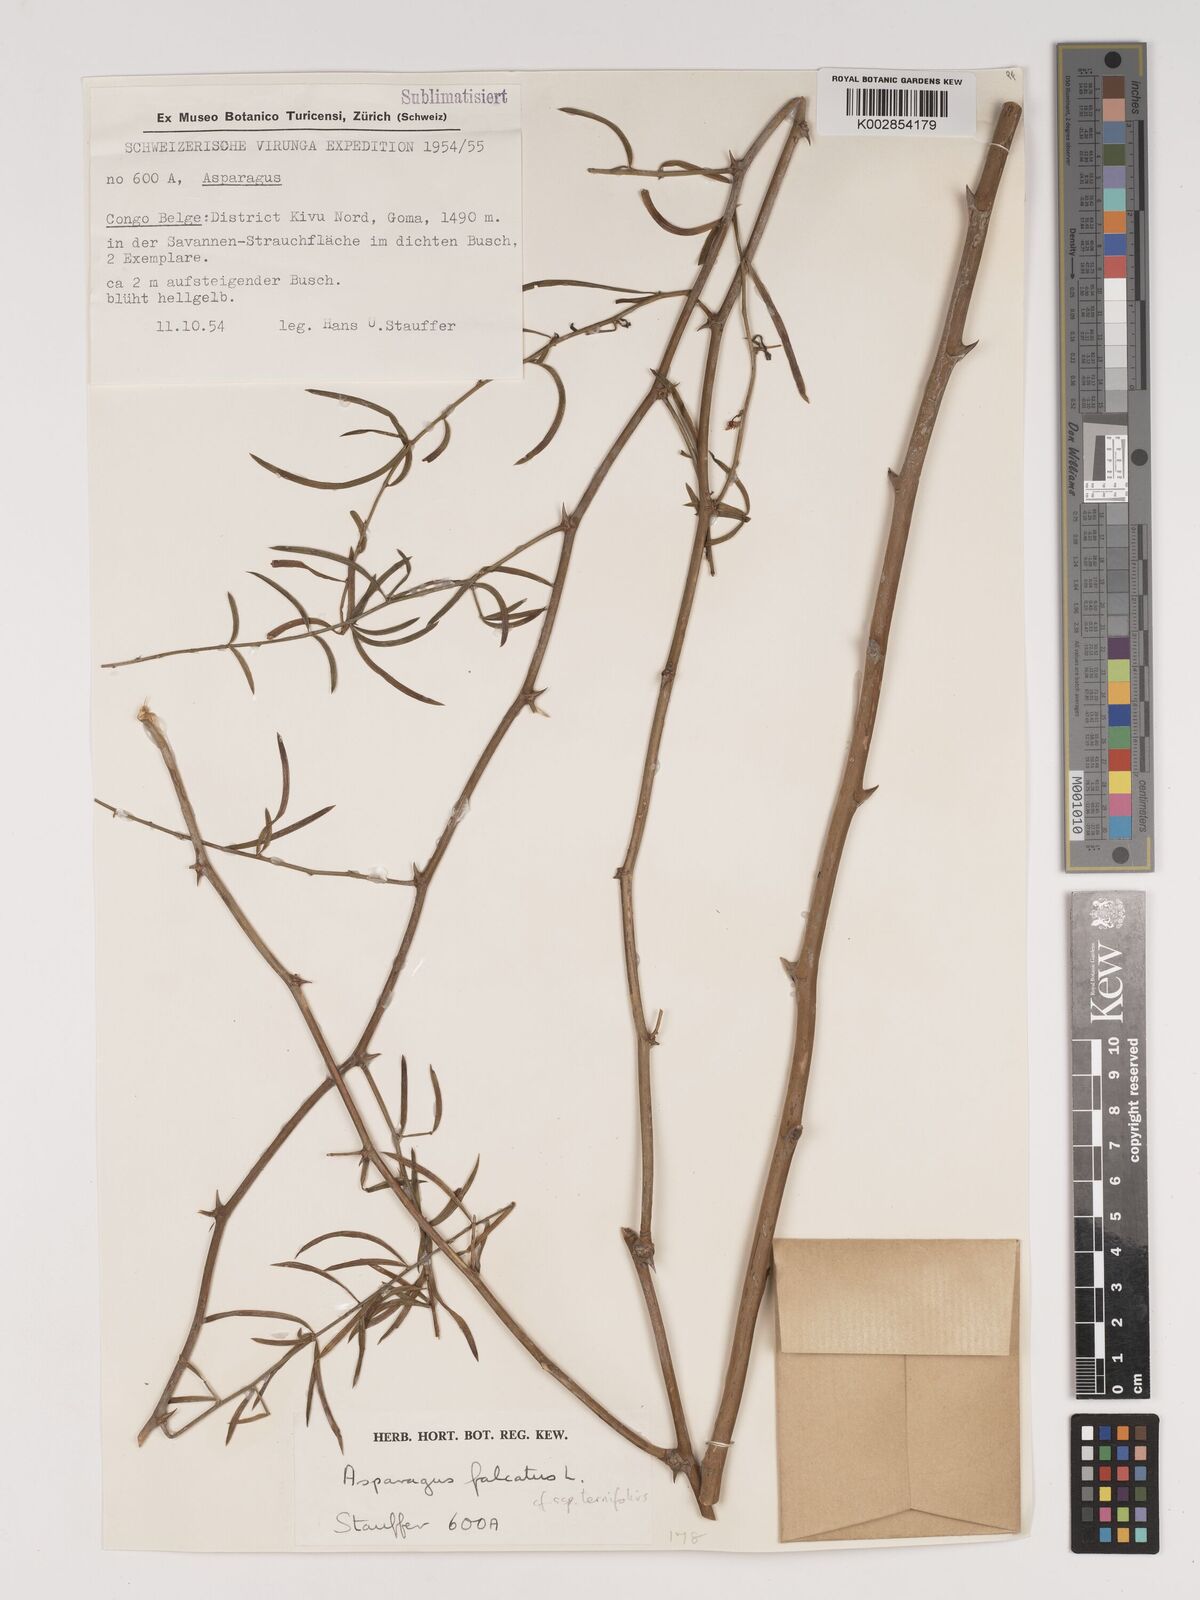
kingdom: Plantae
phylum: Tracheophyta
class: Liliopsida
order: Asparagales
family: Asparagaceae
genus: Asparagus
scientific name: Asparagus falcatus
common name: Asparagus
